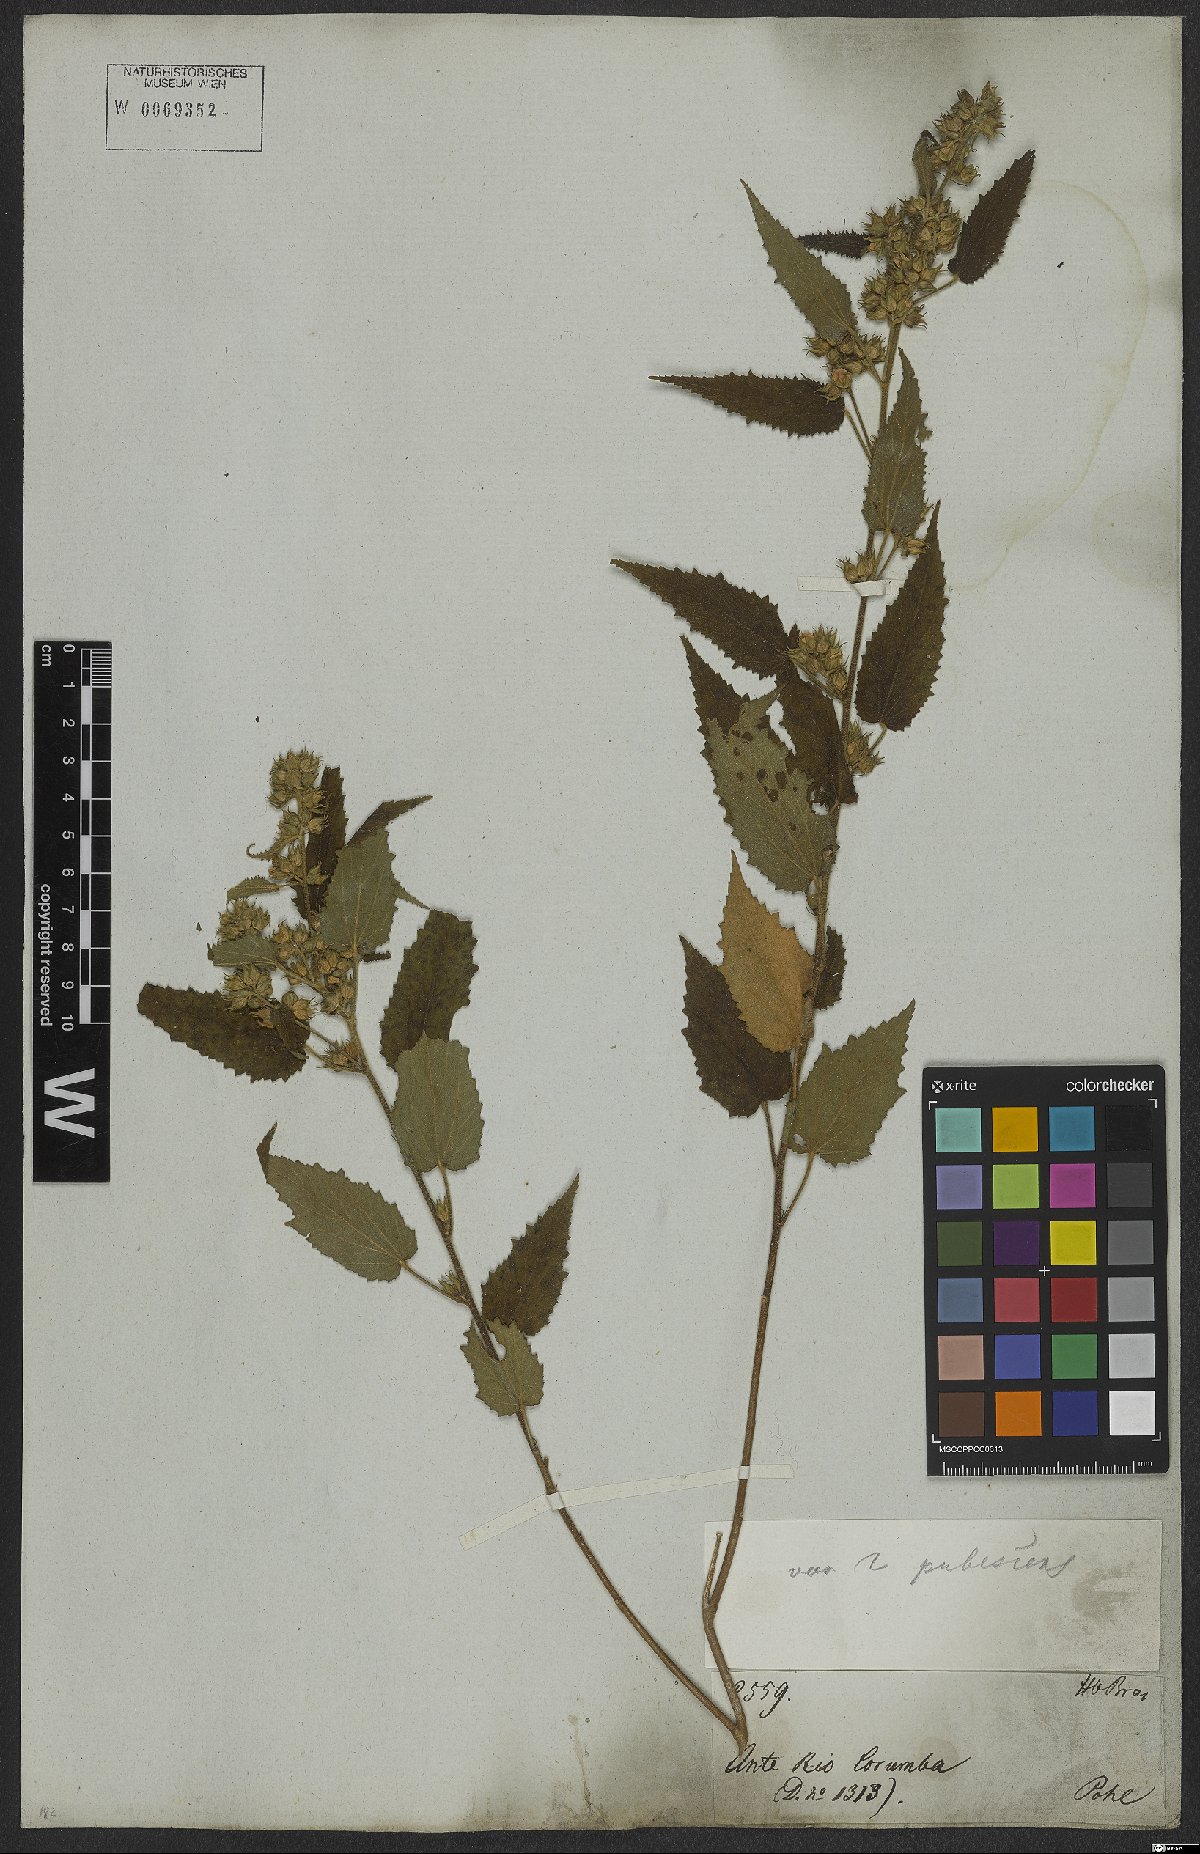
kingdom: Plantae
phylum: Tracheophyta
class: Magnoliopsida
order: Malvales
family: Malvaceae
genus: Sida
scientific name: Sida caudata
